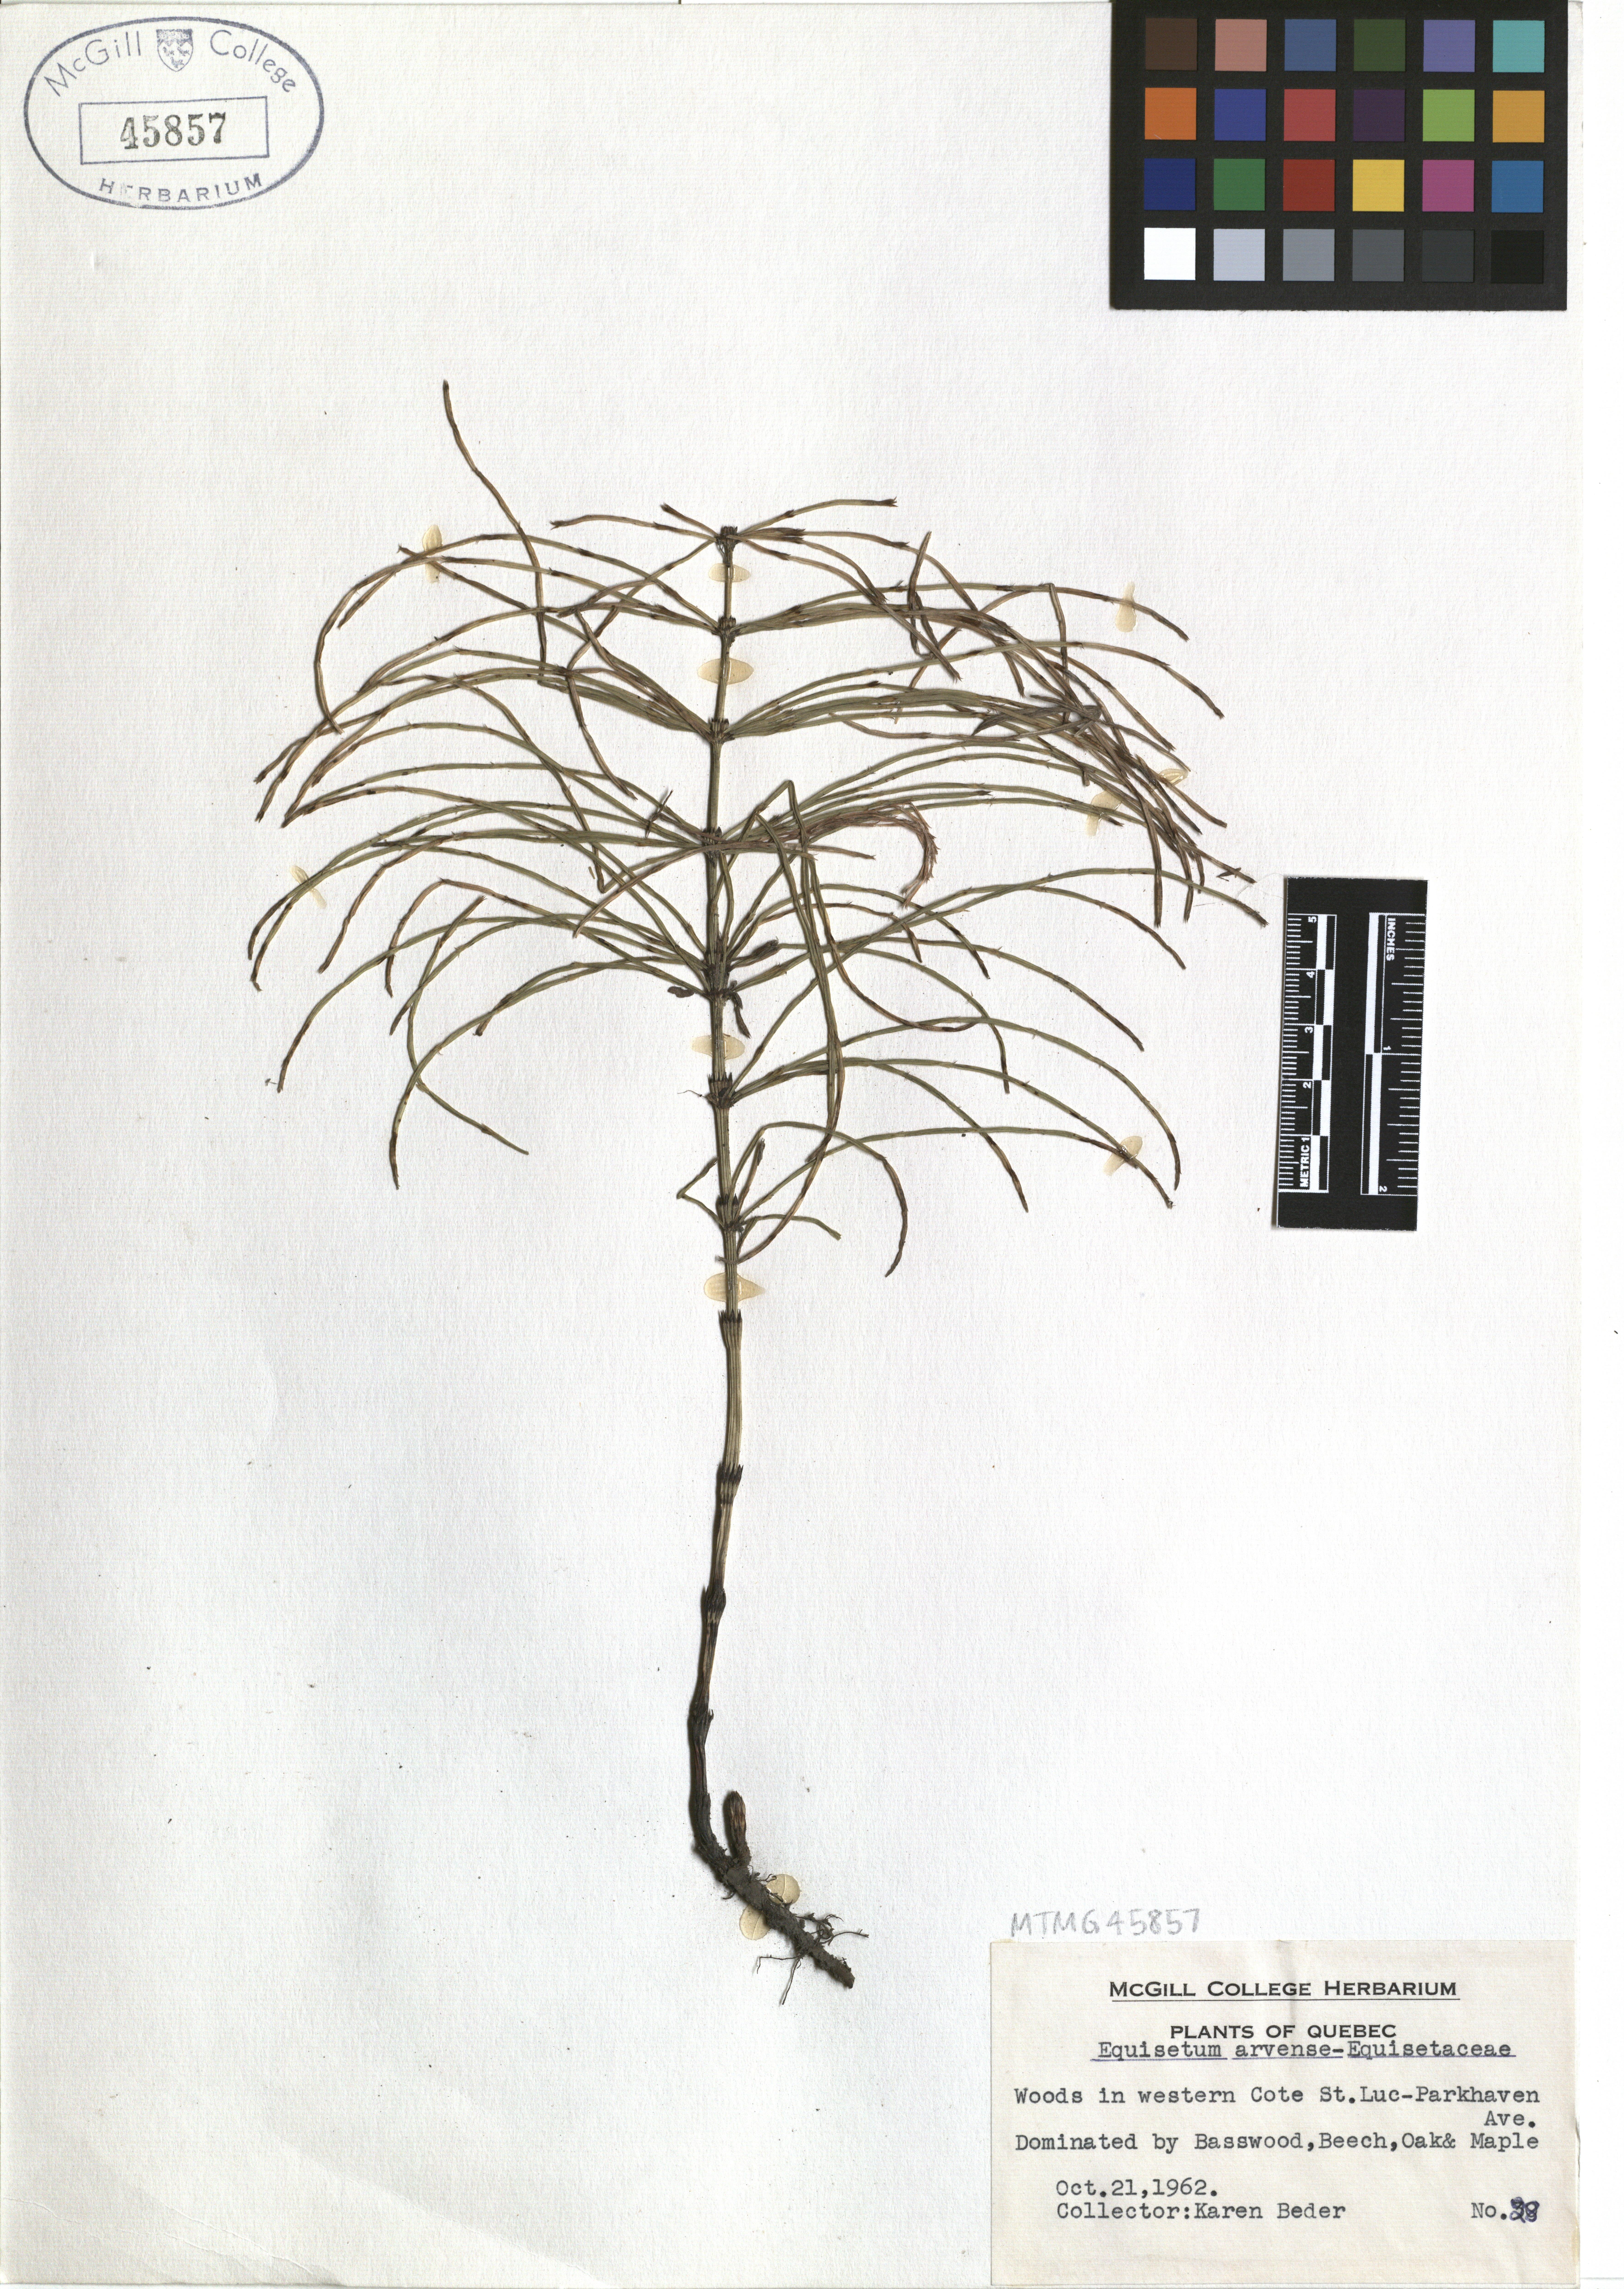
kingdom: Plantae
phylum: Tracheophyta
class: Polypodiopsida
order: Equisetales
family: Equisetaceae
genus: Equisetum
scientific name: Equisetum arvense
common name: Field horsetail
